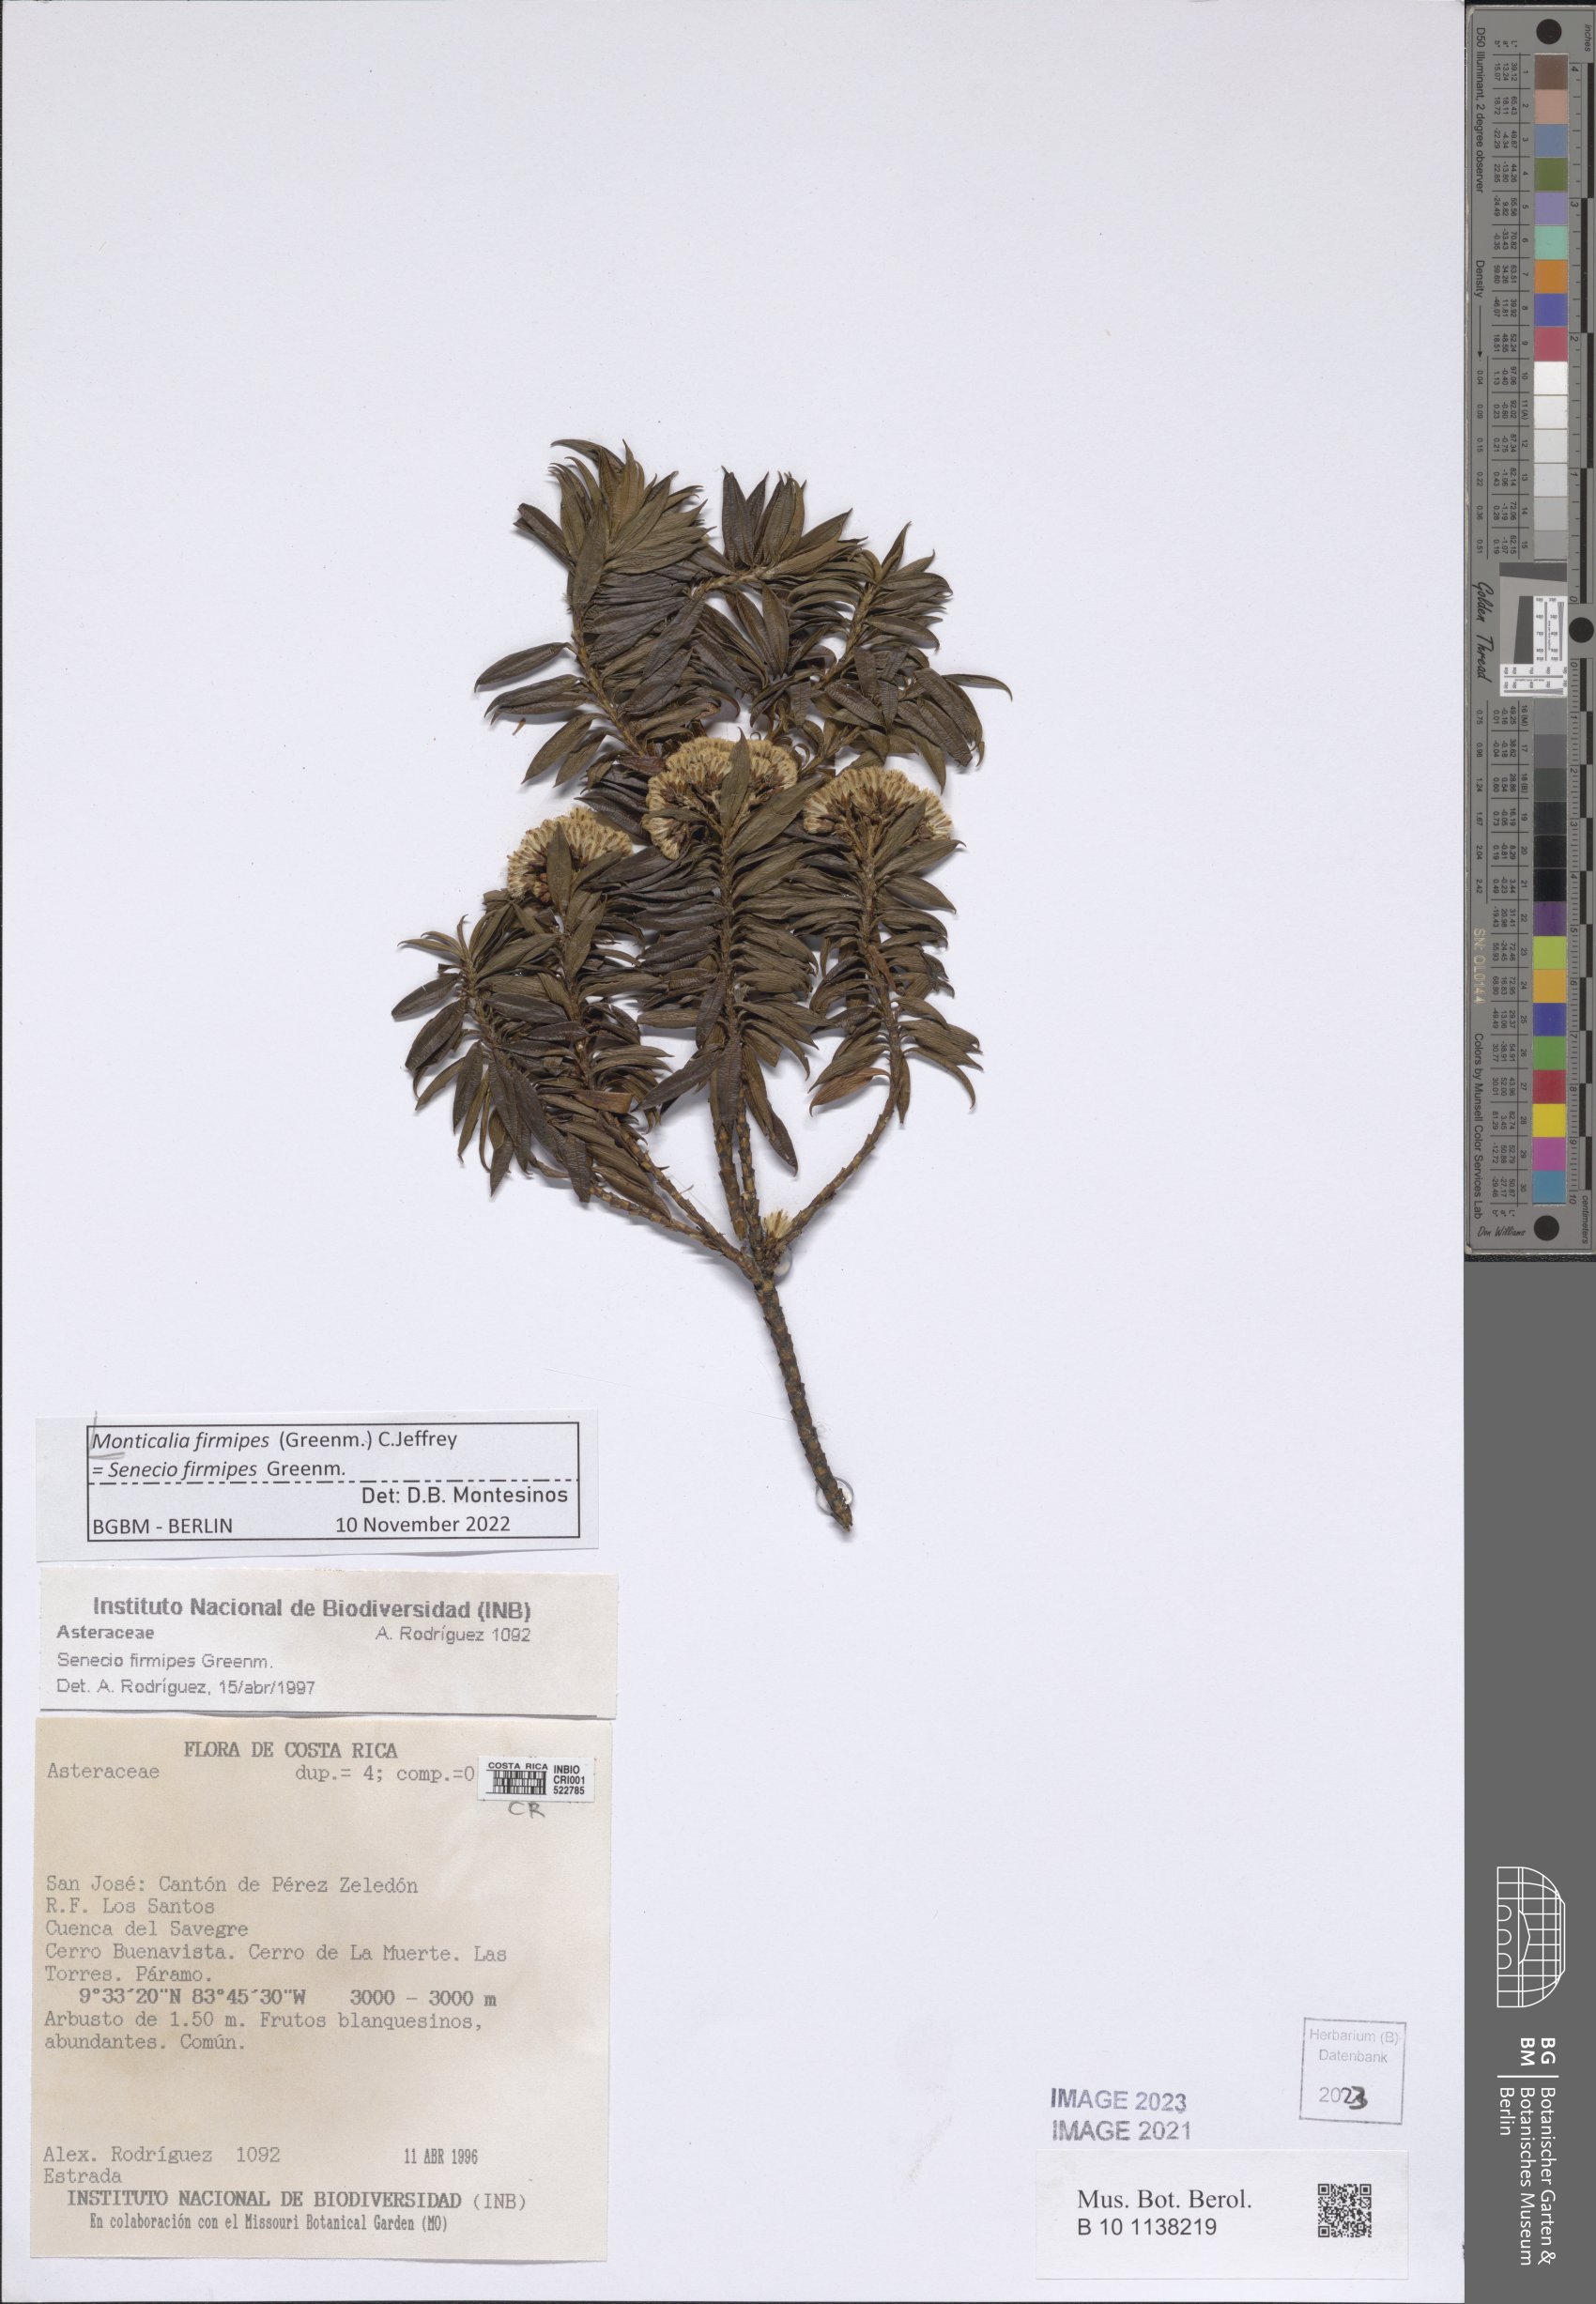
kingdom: Plantae
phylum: Tracheophyta
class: Magnoliopsida
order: Asterales
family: Asteraceae
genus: Monticalia
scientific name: Monticalia firmipes
